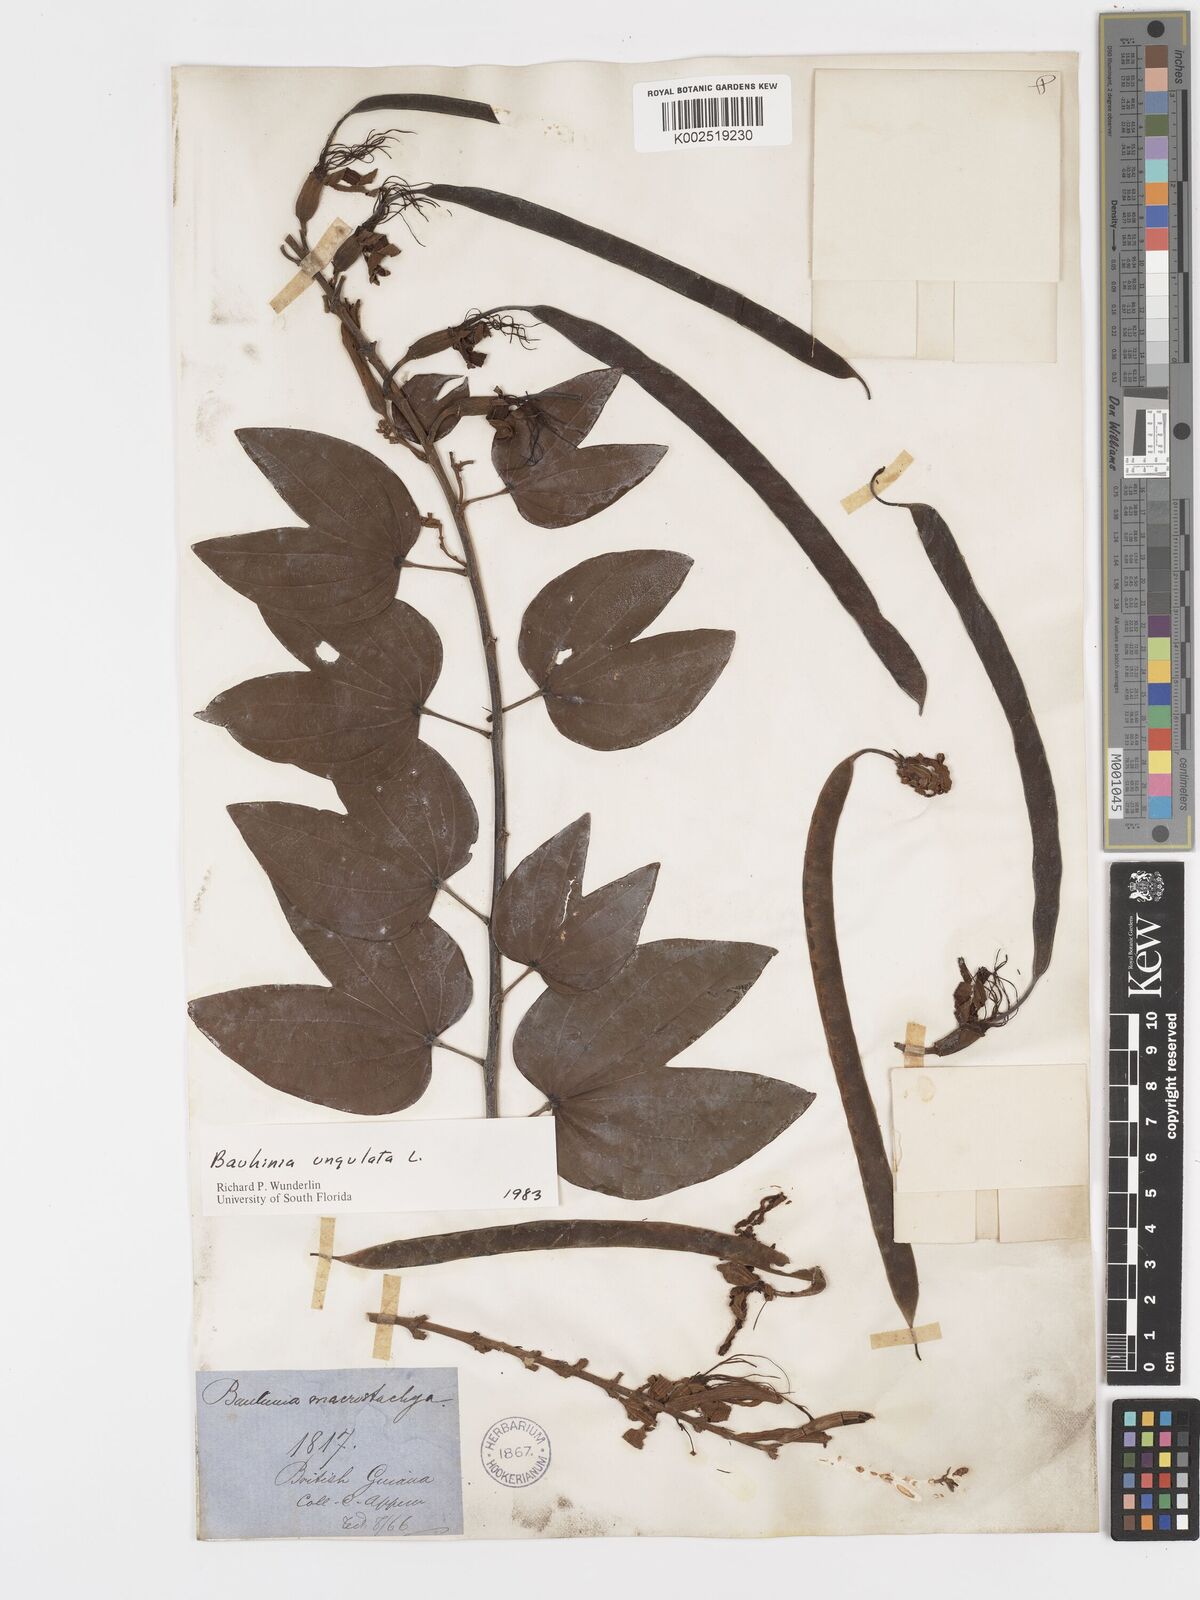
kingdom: Plantae
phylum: Tracheophyta
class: Magnoliopsida
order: Fabales
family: Fabaceae
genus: Bauhinia
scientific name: Bauhinia ungulata
